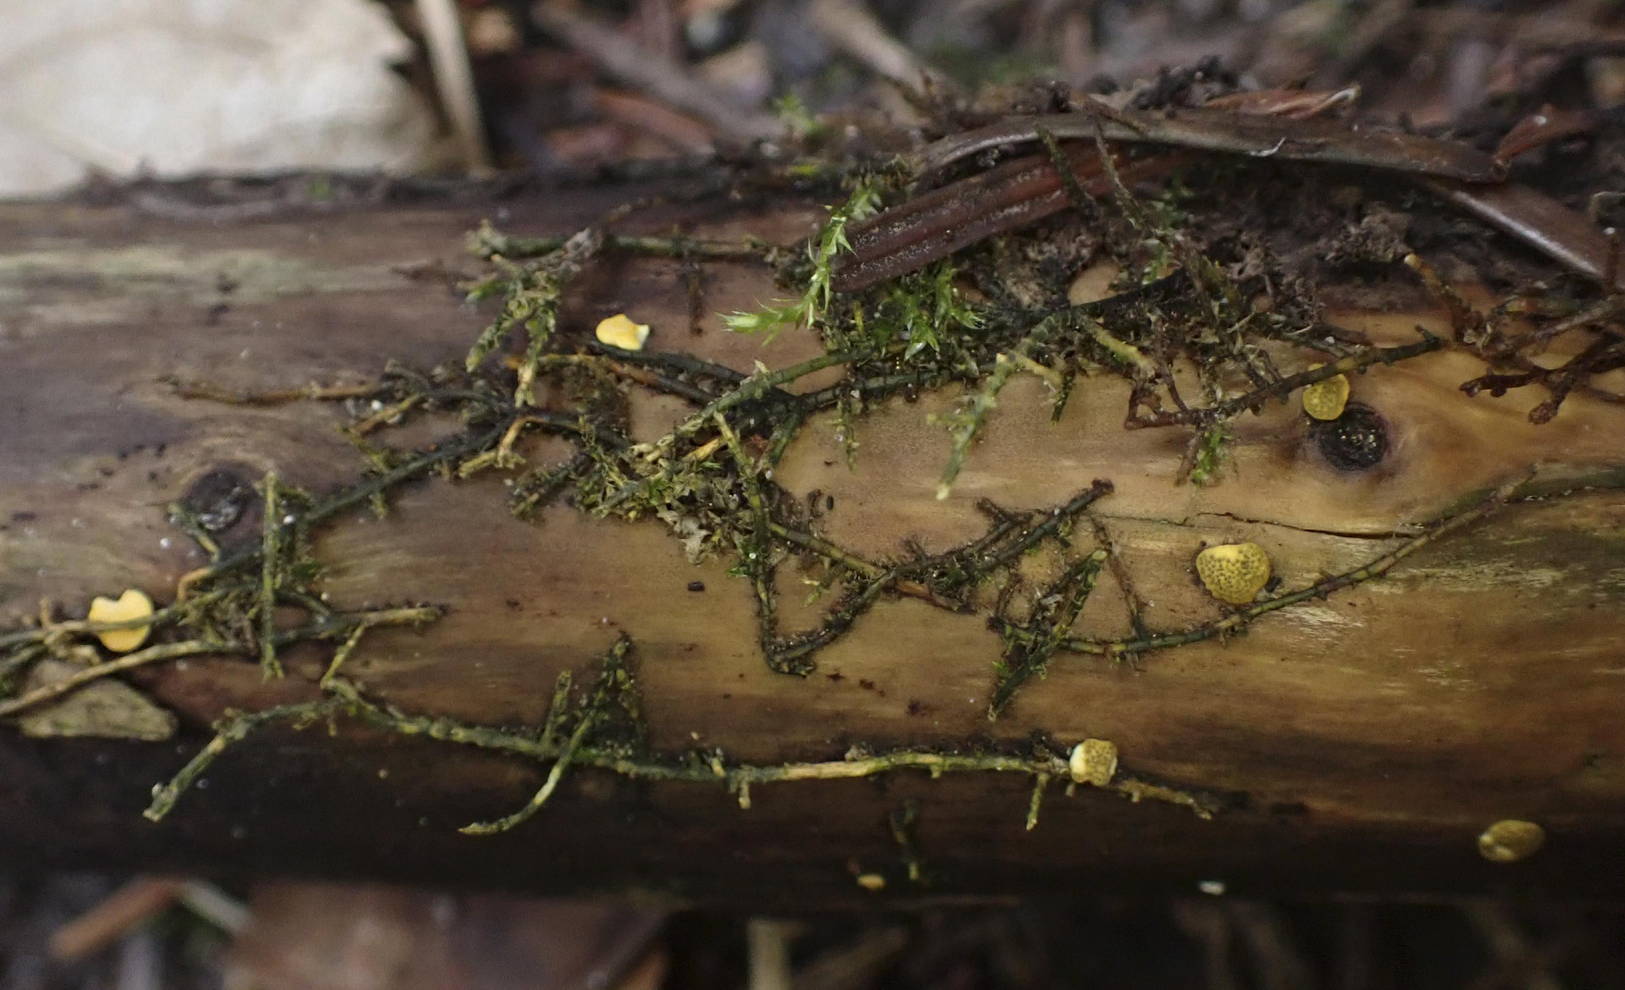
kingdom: Fungi
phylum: Ascomycota
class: Sordariomycetes
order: Hypocreales
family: Hypocreaceae
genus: Trichoderma
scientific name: Trichoderma aureoviride
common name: æggegul kødkerne
